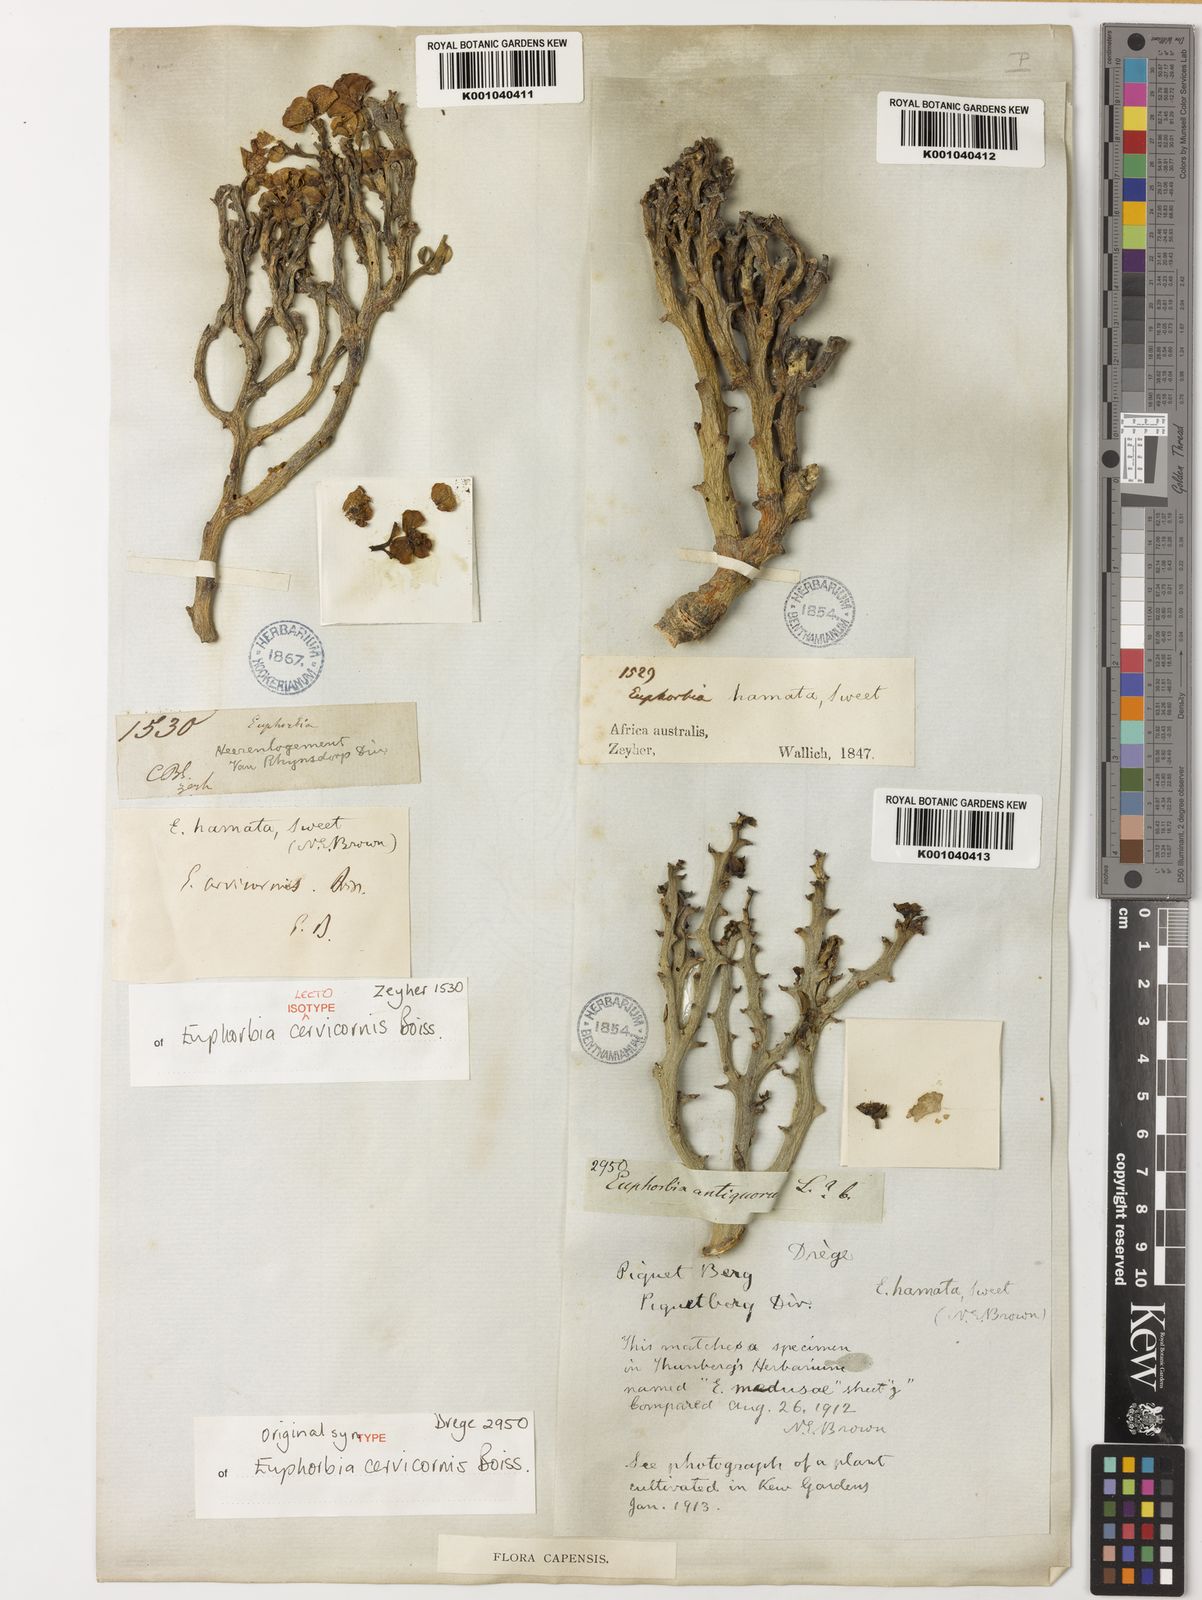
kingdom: Plantae
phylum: Tracheophyta
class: Magnoliopsida
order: Malpighiales
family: Euphorbiaceae
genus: Euphorbia
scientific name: Euphorbia hamata
